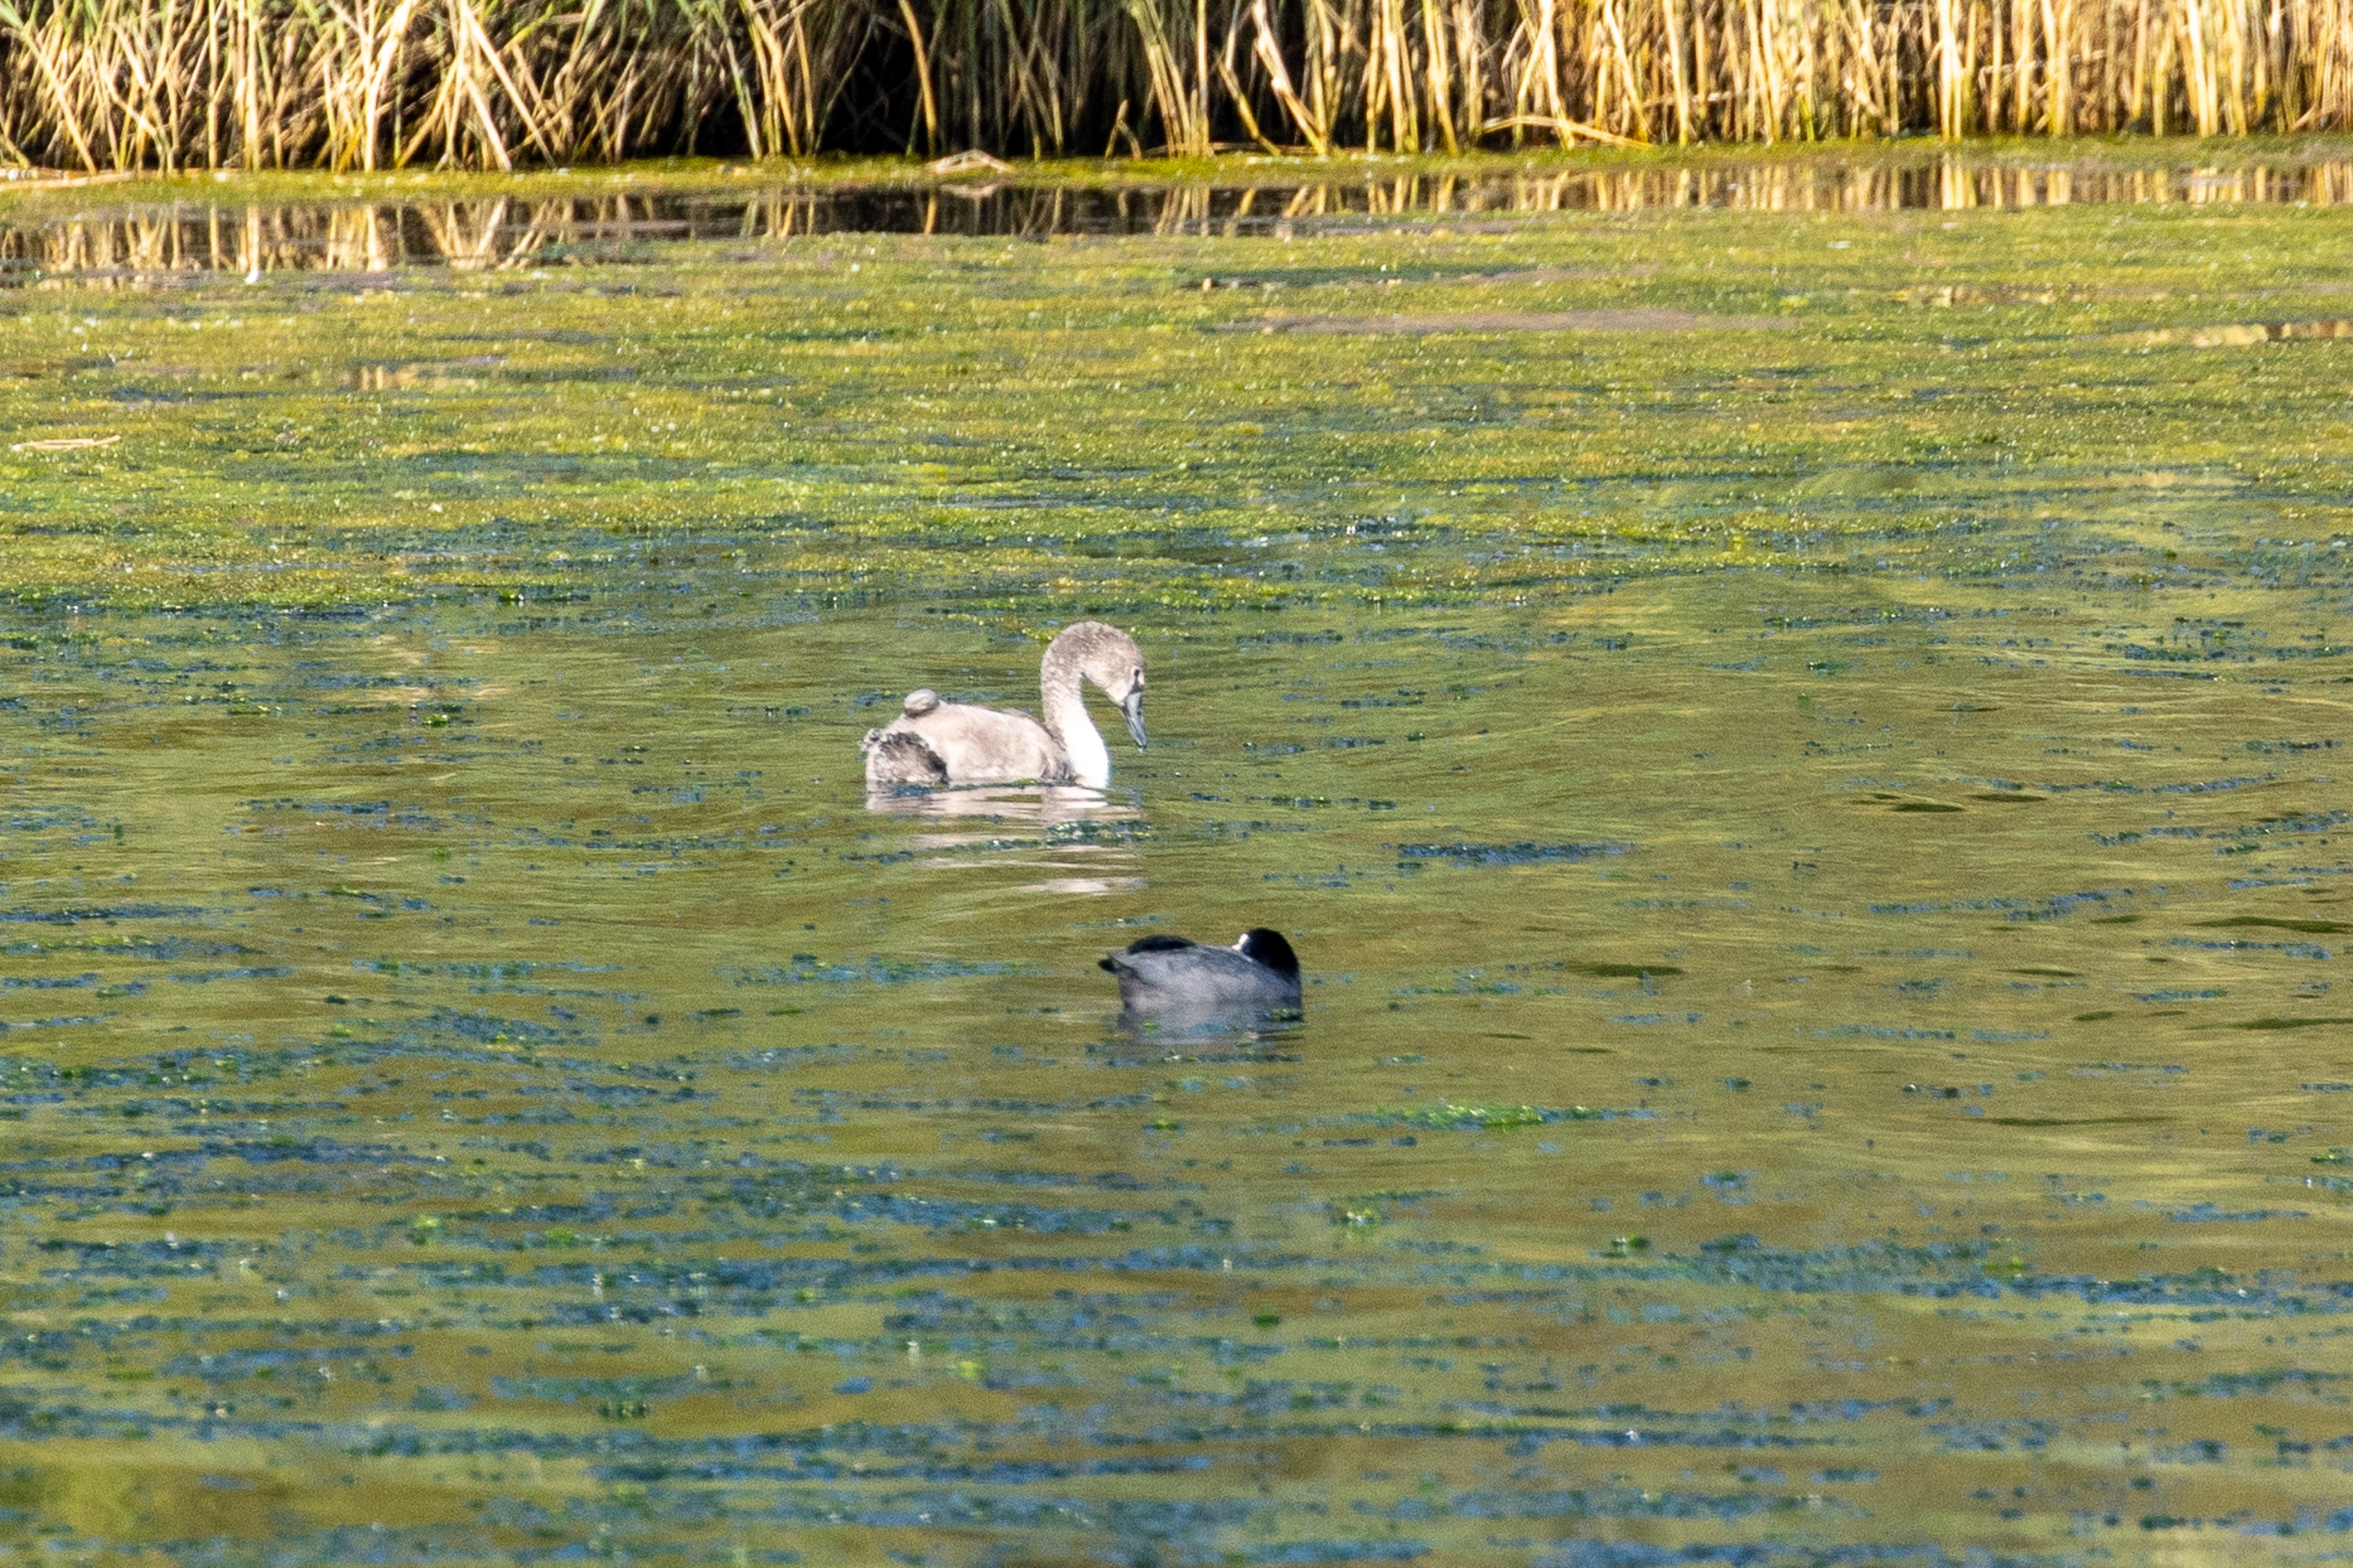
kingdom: Animalia
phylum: Chordata
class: Aves
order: Anseriformes
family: Anatidae
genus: Cygnus
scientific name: Cygnus olor
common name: Knopsvane
